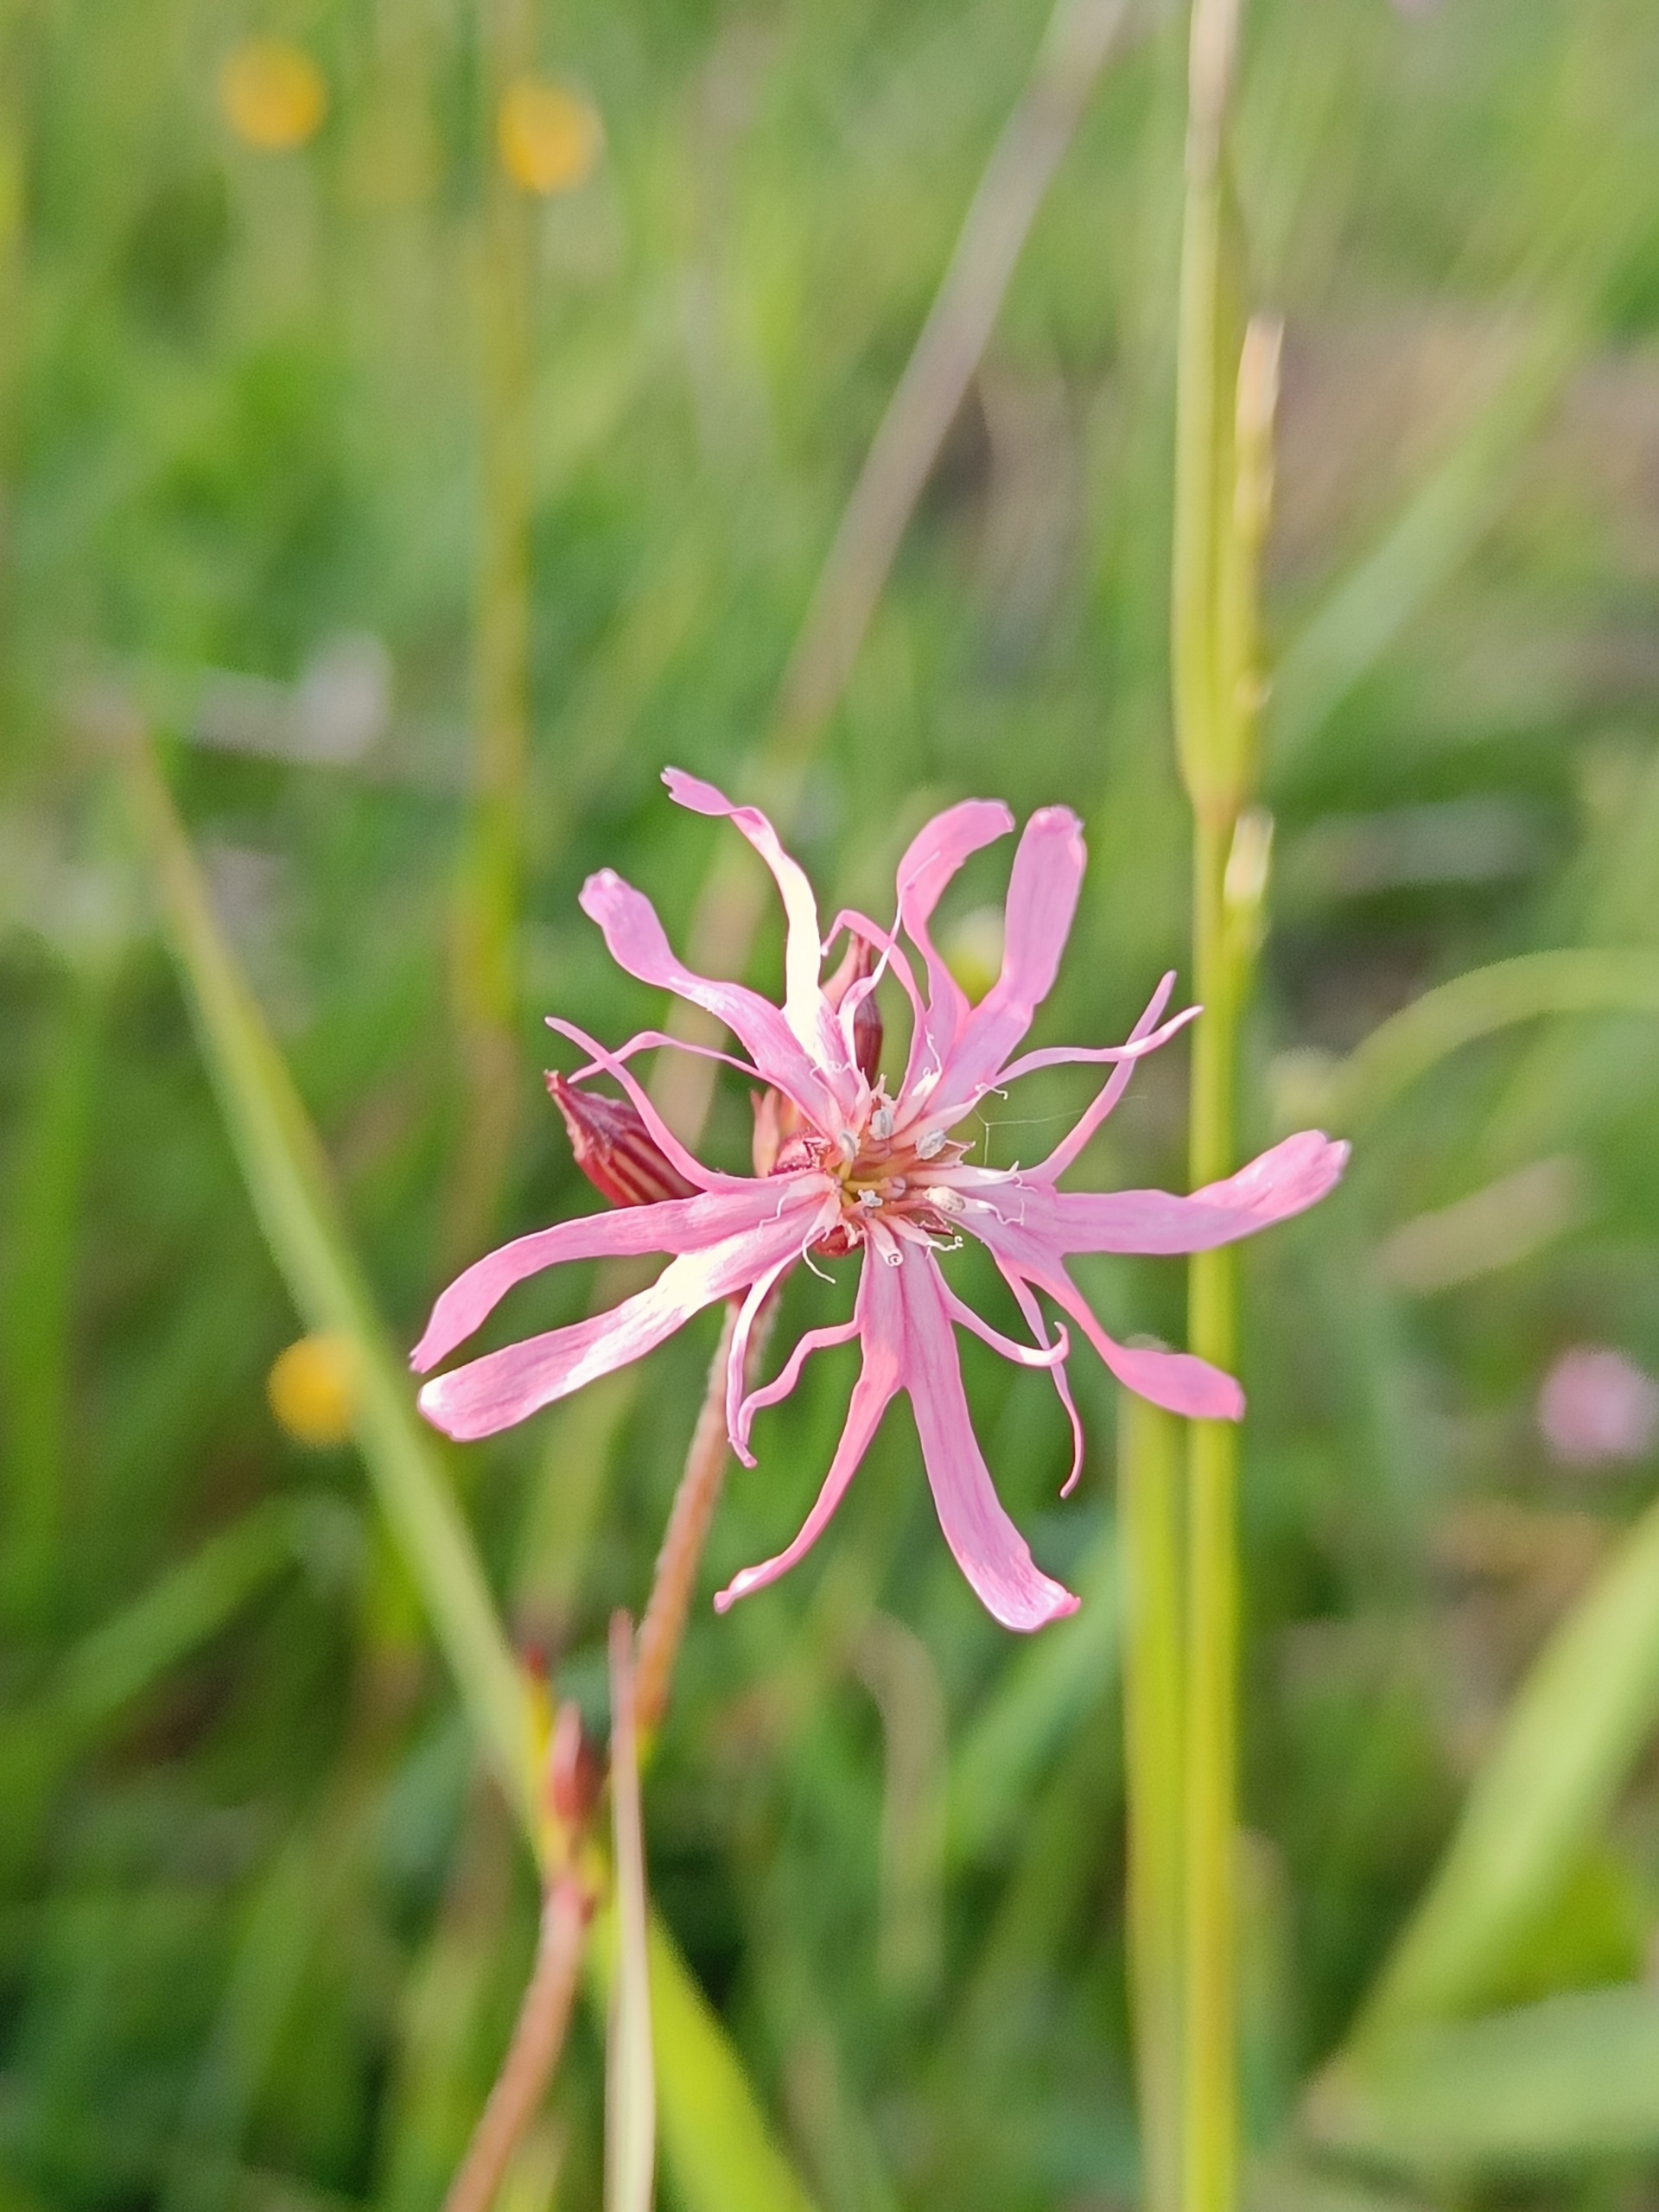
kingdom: Plantae
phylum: Tracheophyta
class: Magnoliopsida
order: Caryophyllales
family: Caryophyllaceae
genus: Silene
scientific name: Silene flos-cuculi
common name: Trævlekrone
